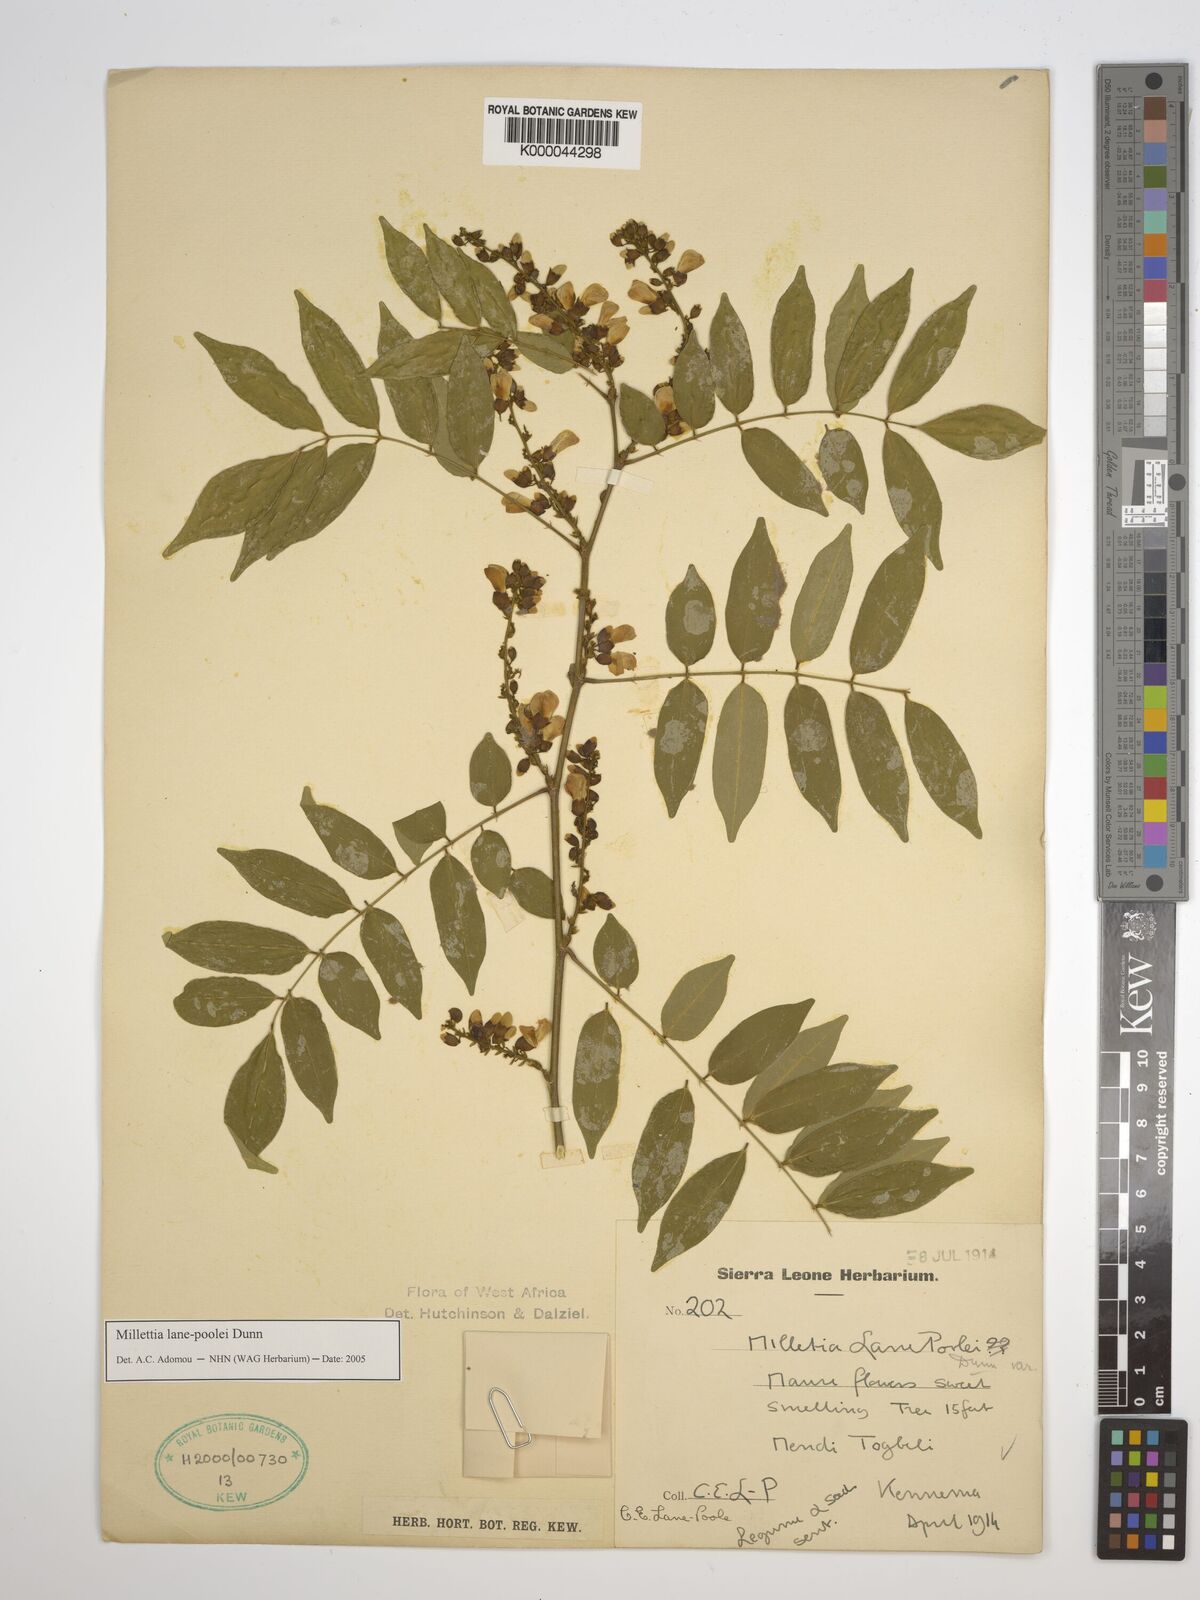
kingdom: Plantae
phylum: Tracheophyta
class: Magnoliopsida
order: Fabales
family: Fabaceae
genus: Millettia
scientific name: Millettia lane-poolei
